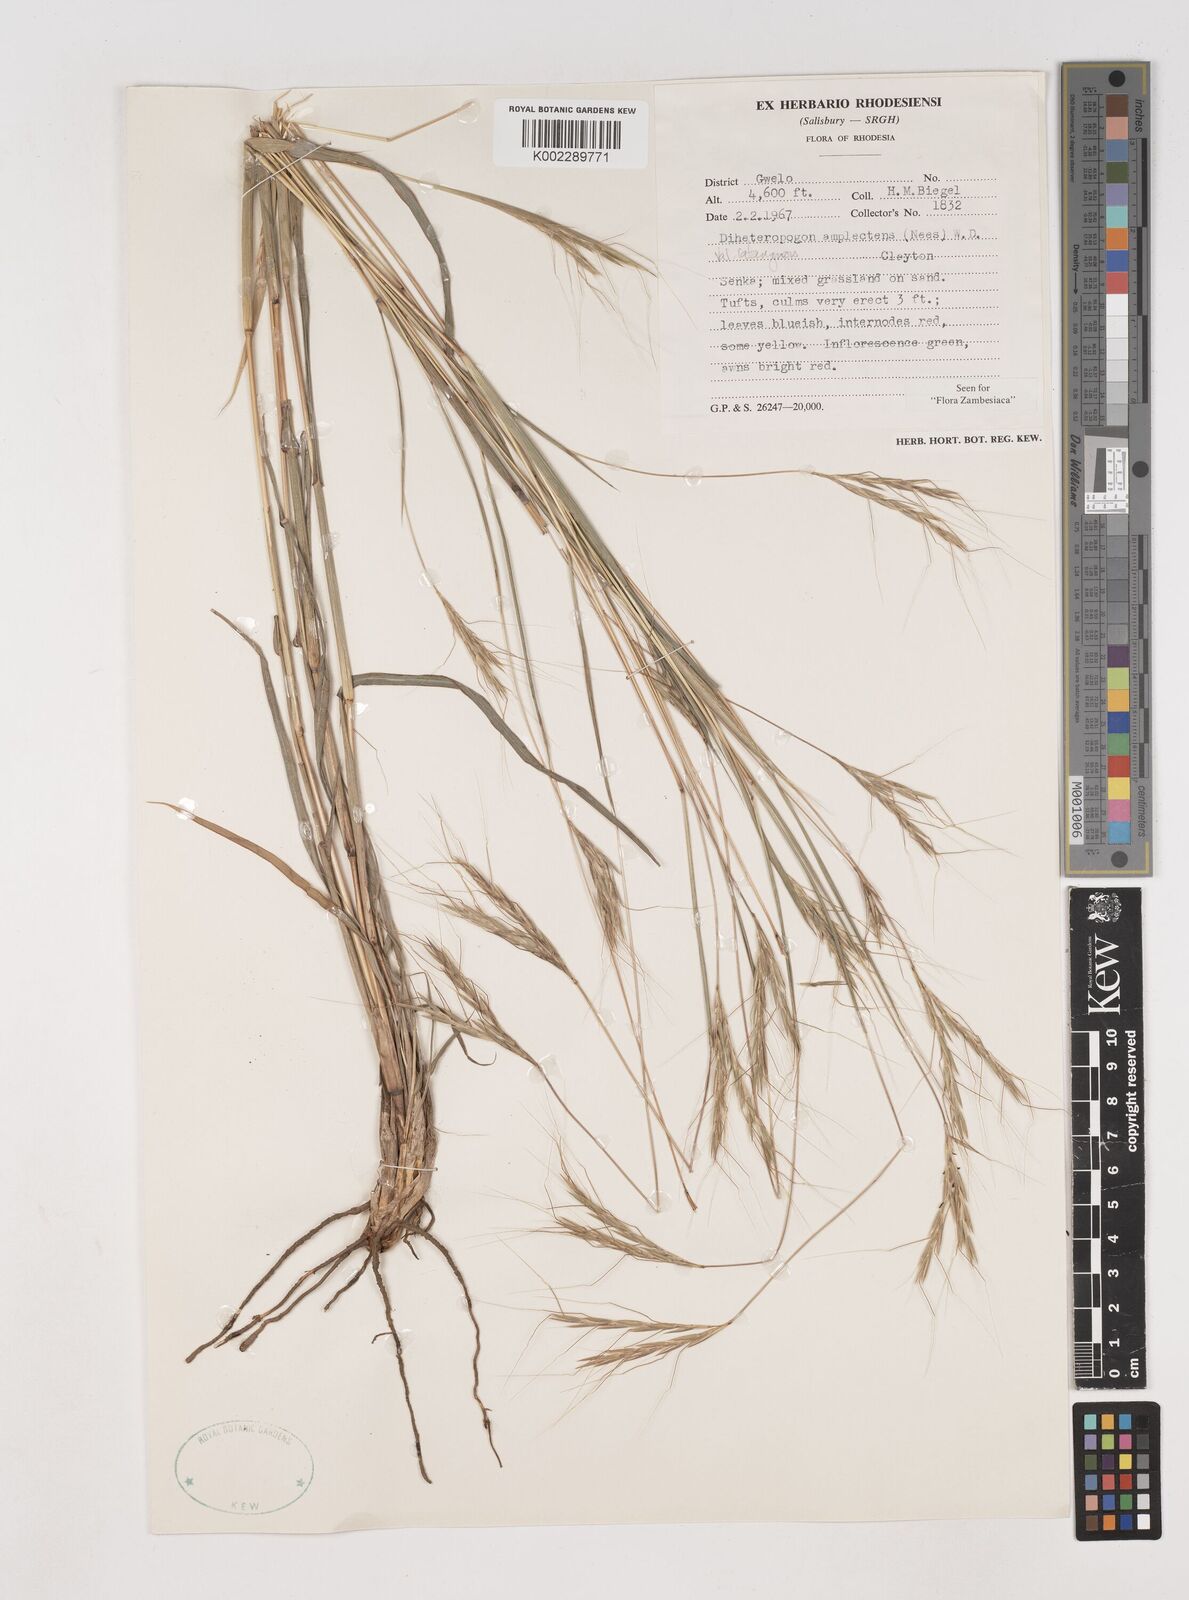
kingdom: Plantae
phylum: Tracheophyta
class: Liliopsida
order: Poales
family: Poaceae
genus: Diheteropogon
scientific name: Diheteropogon amplectens
